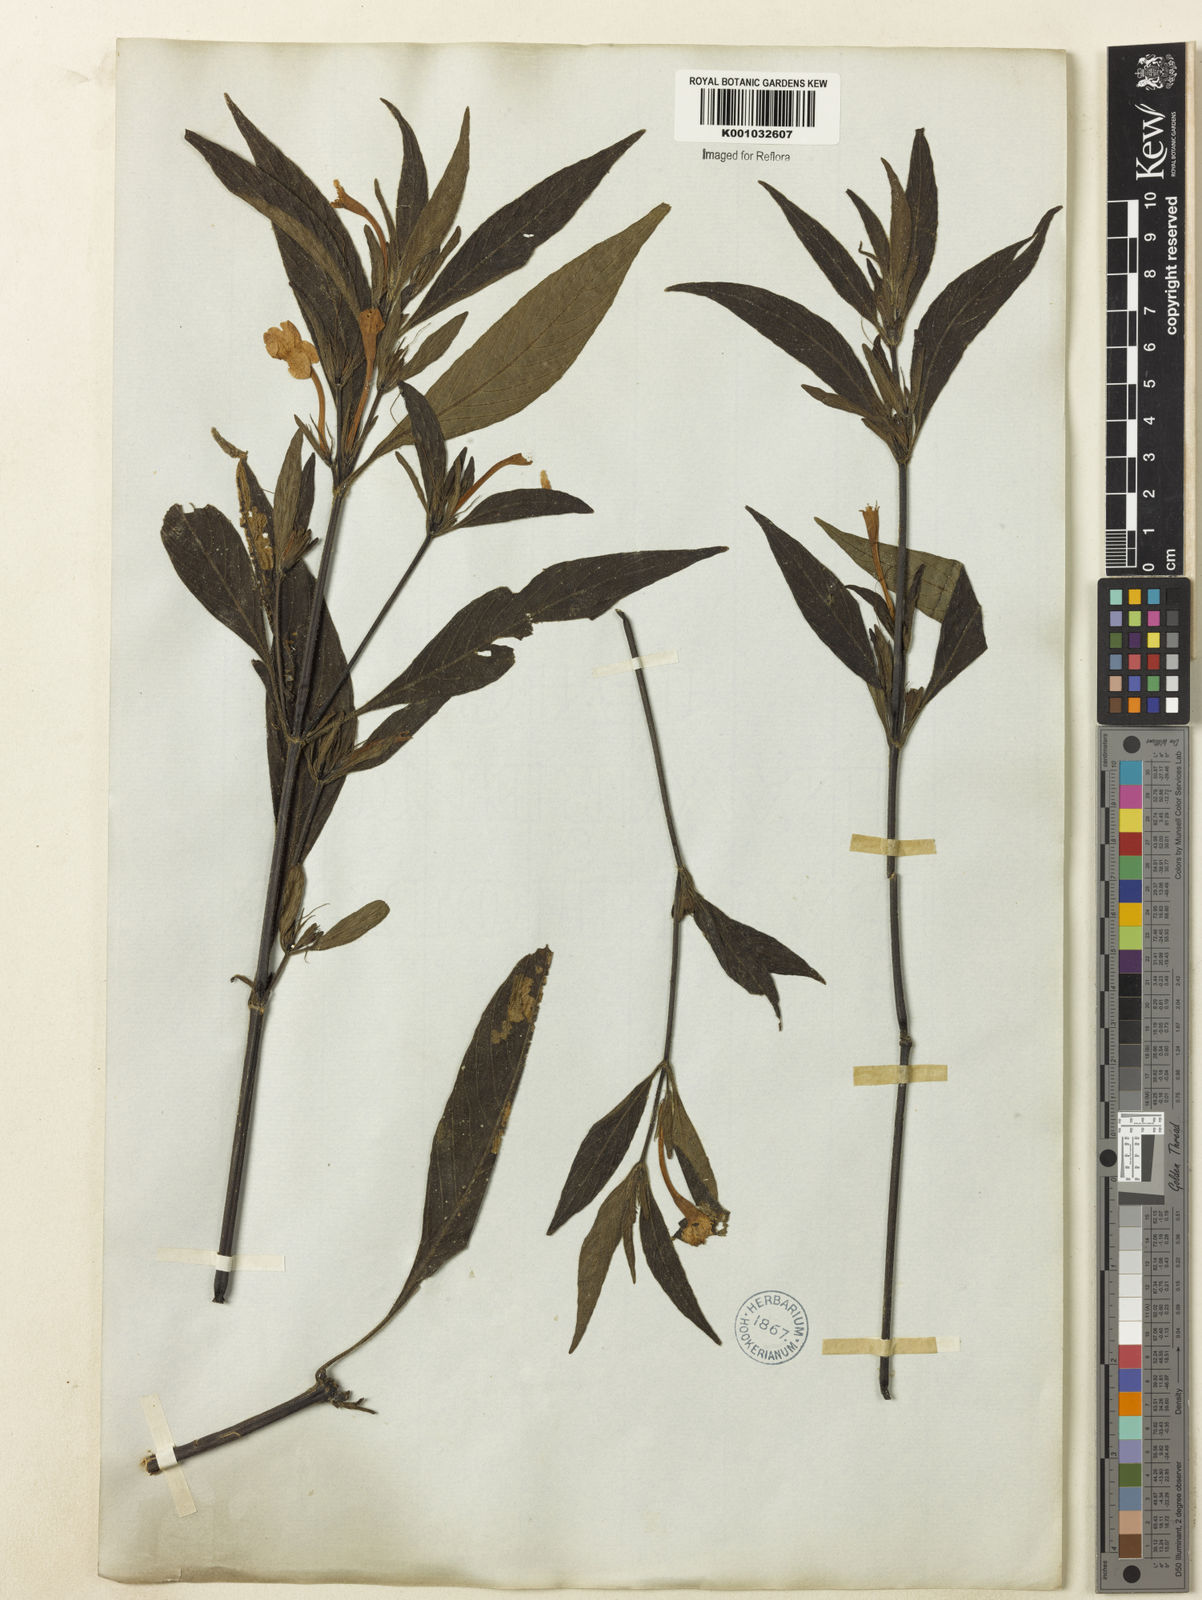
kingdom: Plantae
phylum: Tracheophyta
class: Magnoliopsida
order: Lamiales
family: Acanthaceae
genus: Ruellia
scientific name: Ruellia jussieuoides
